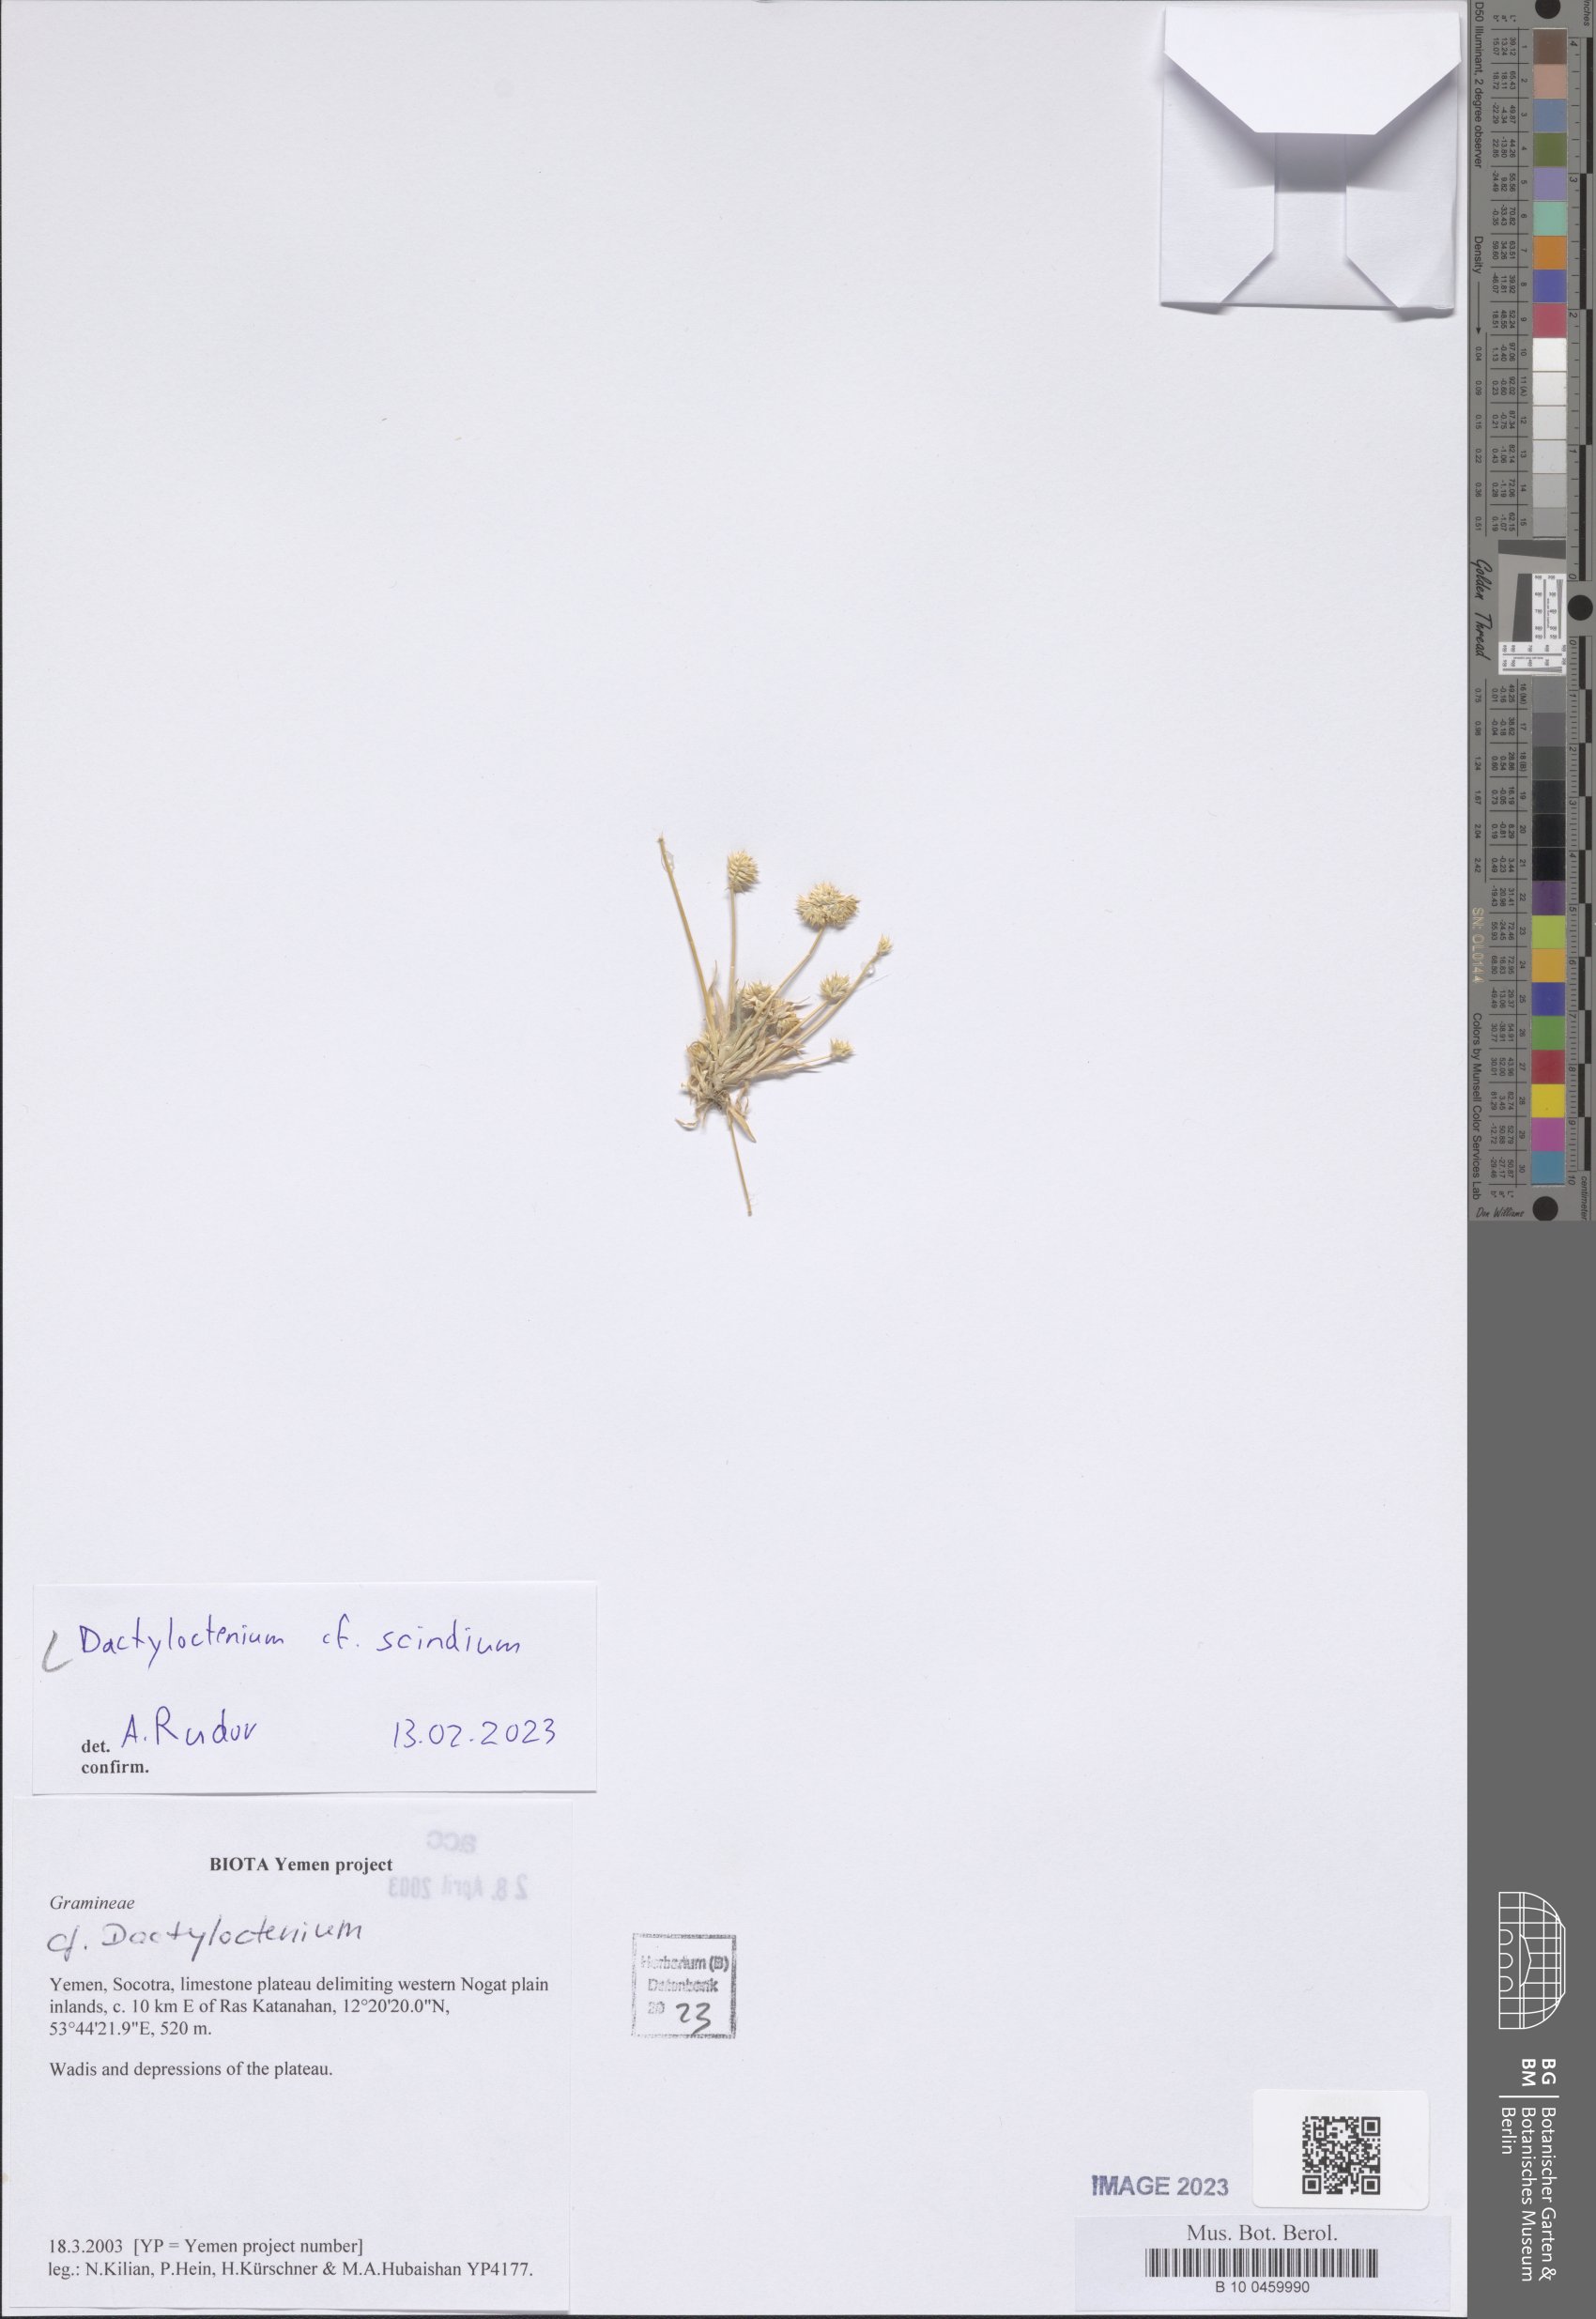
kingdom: Plantae
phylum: Tracheophyta
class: Liliopsida
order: Poales
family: Poaceae
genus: Dactyloctenium
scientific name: Dactyloctenium scindicum
